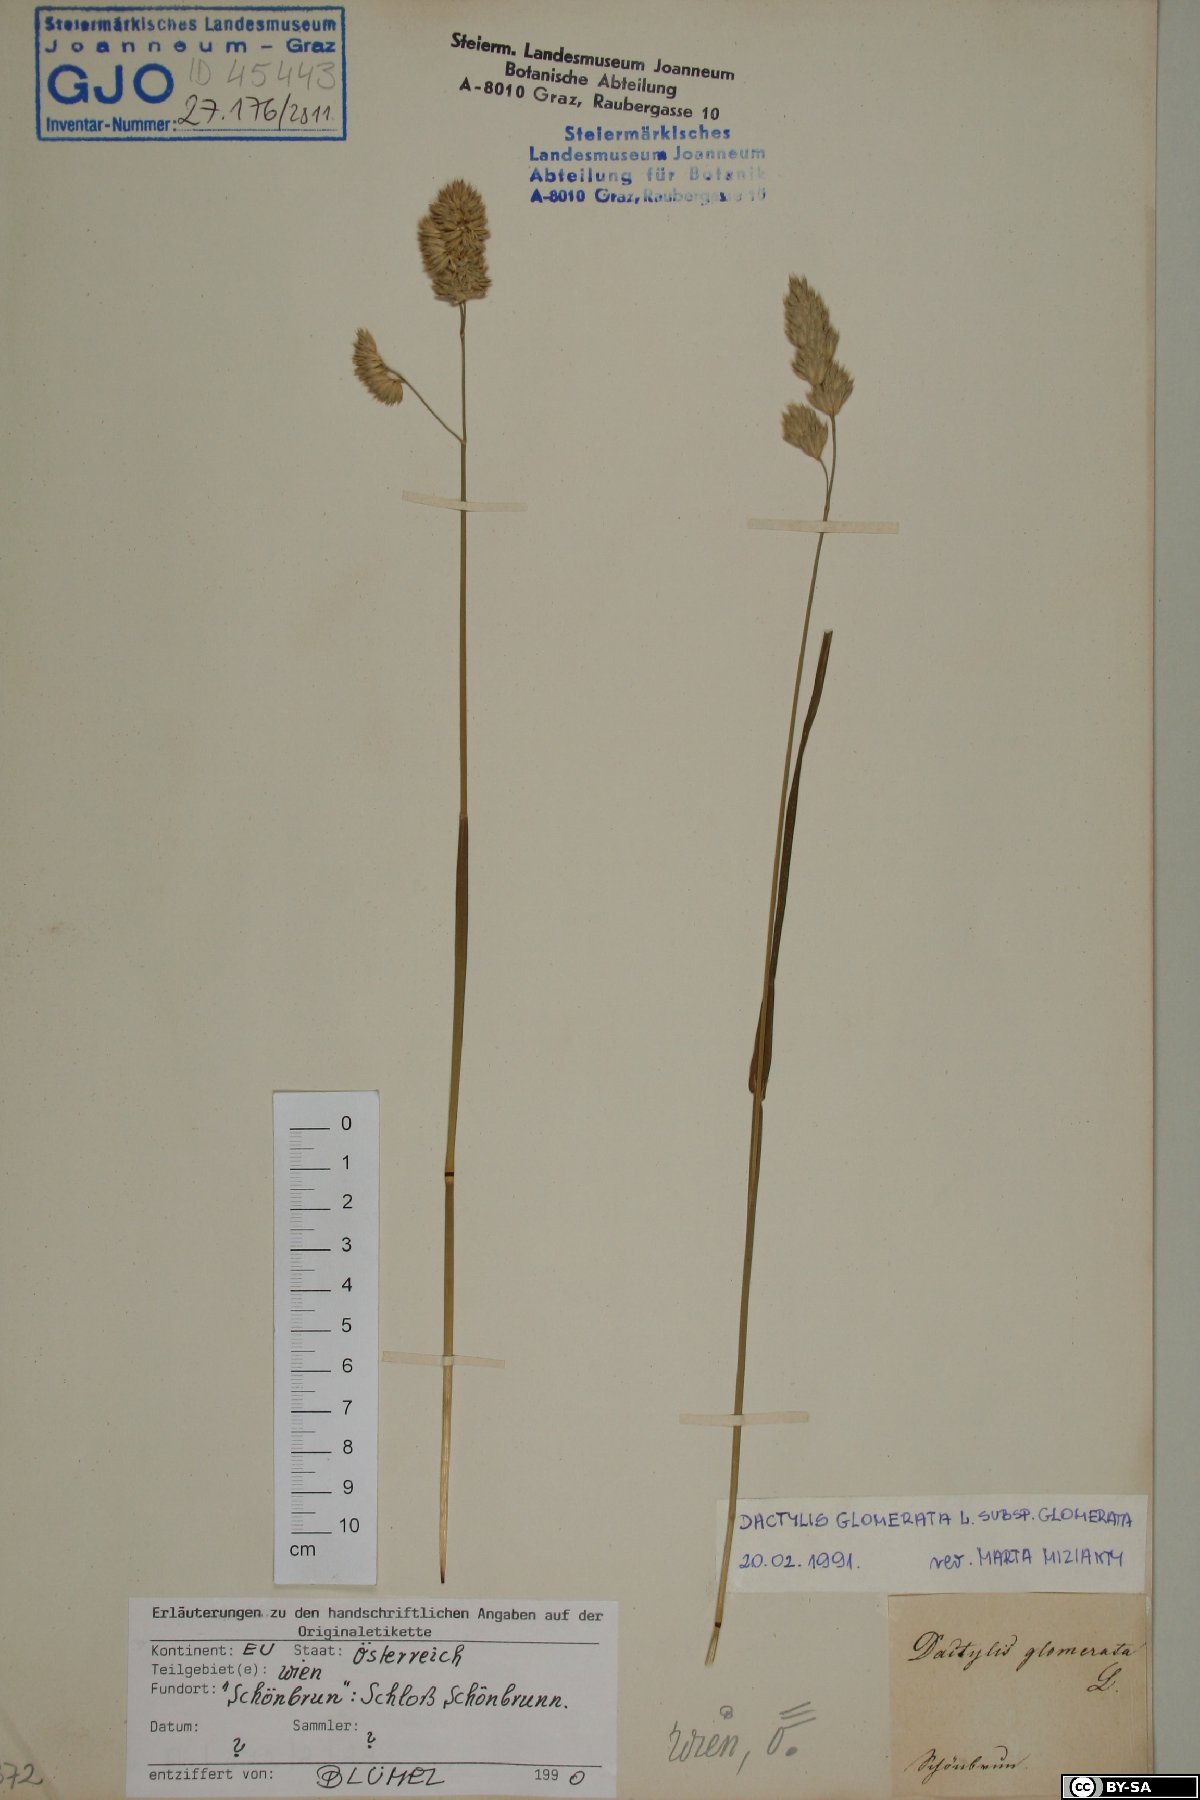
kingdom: Plantae
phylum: Tracheophyta
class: Liliopsida
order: Poales
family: Poaceae
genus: Dactylis
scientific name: Dactylis glomerata
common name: Orchardgrass
